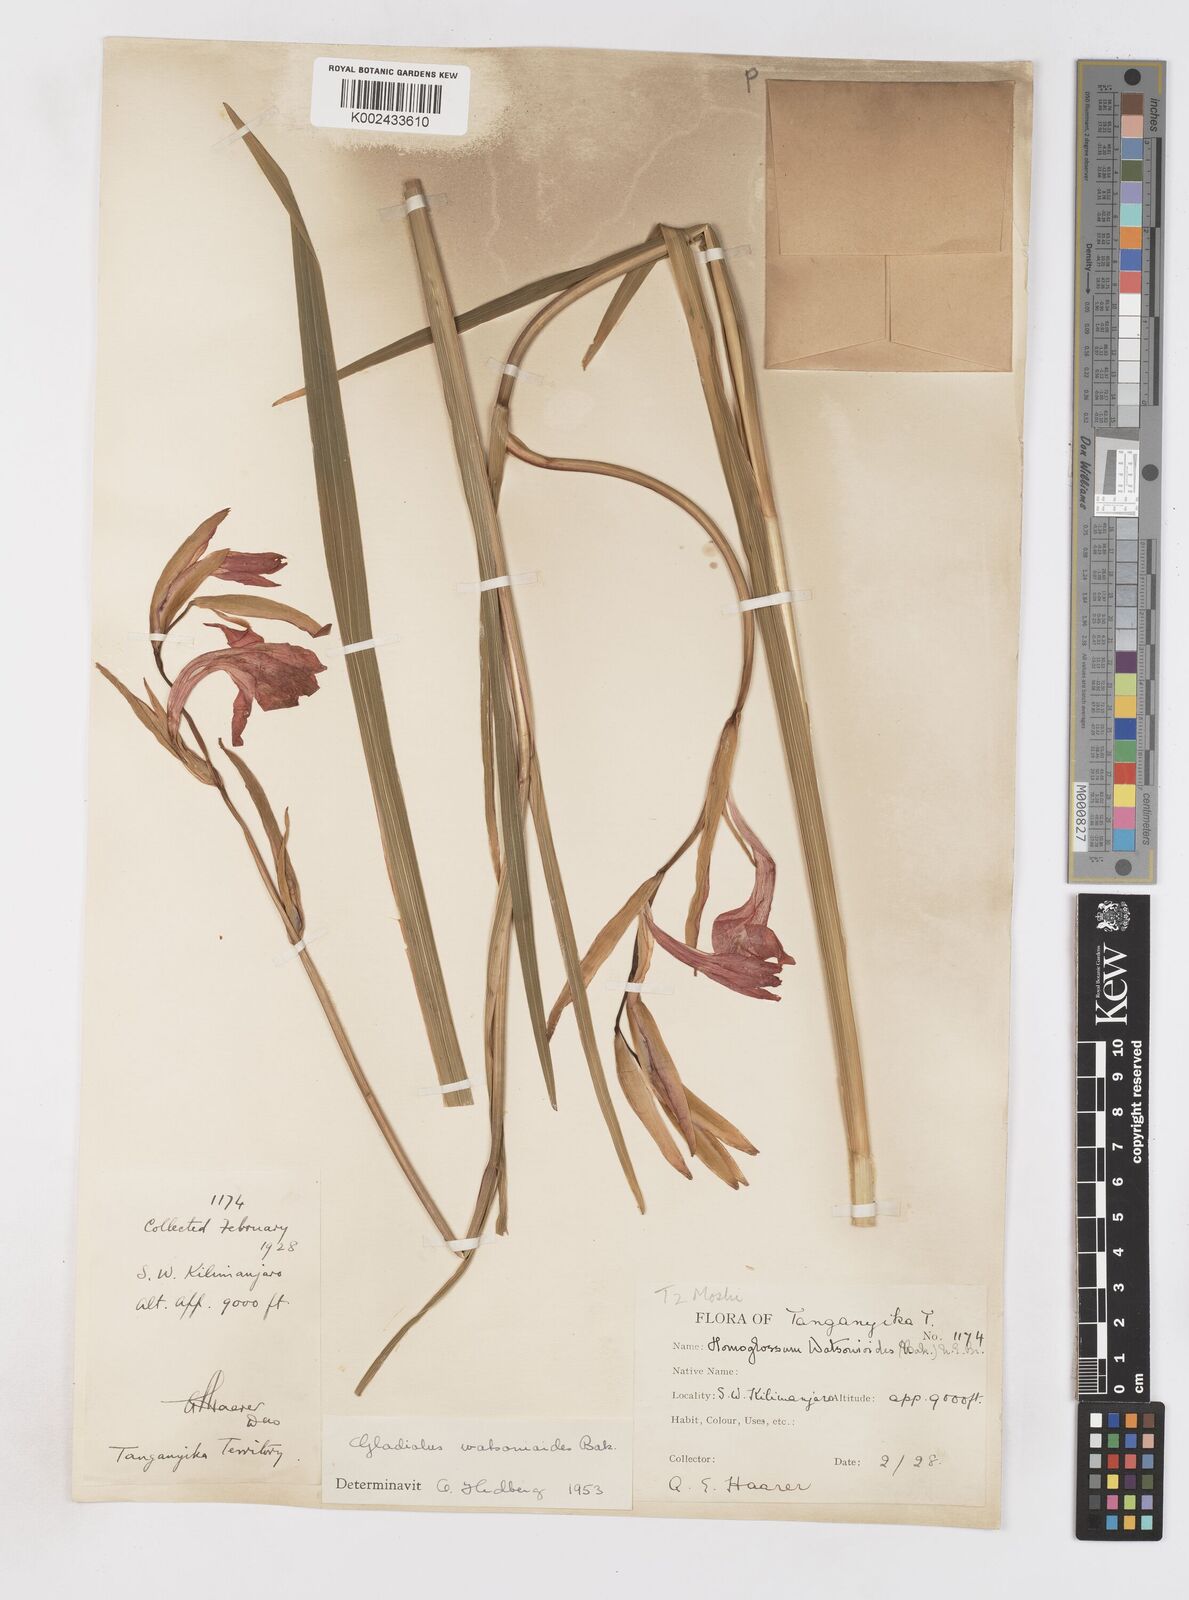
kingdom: Plantae
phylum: Tracheophyta
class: Liliopsida
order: Asparagales
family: Iridaceae
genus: Gladiolus
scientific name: Gladiolus watsonioides
